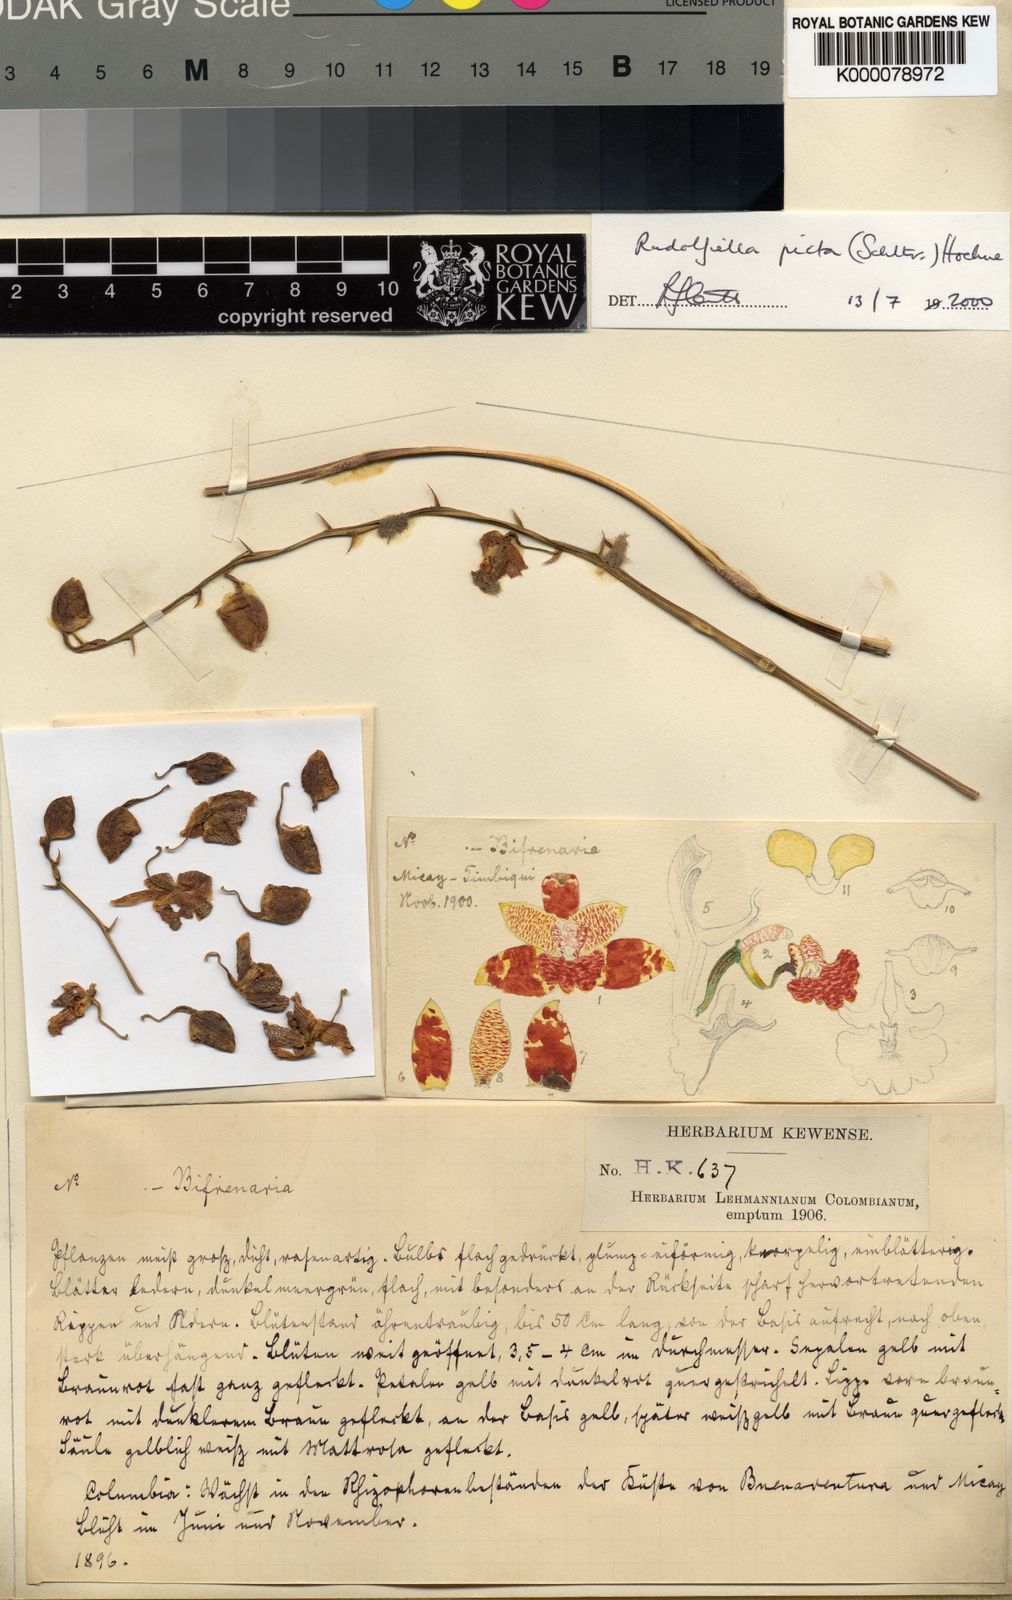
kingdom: Plantae
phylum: Tracheophyta
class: Liliopsida
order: Asparagales
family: Orchidaceae
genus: Rudolfiella
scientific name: Rudolfiella picta
